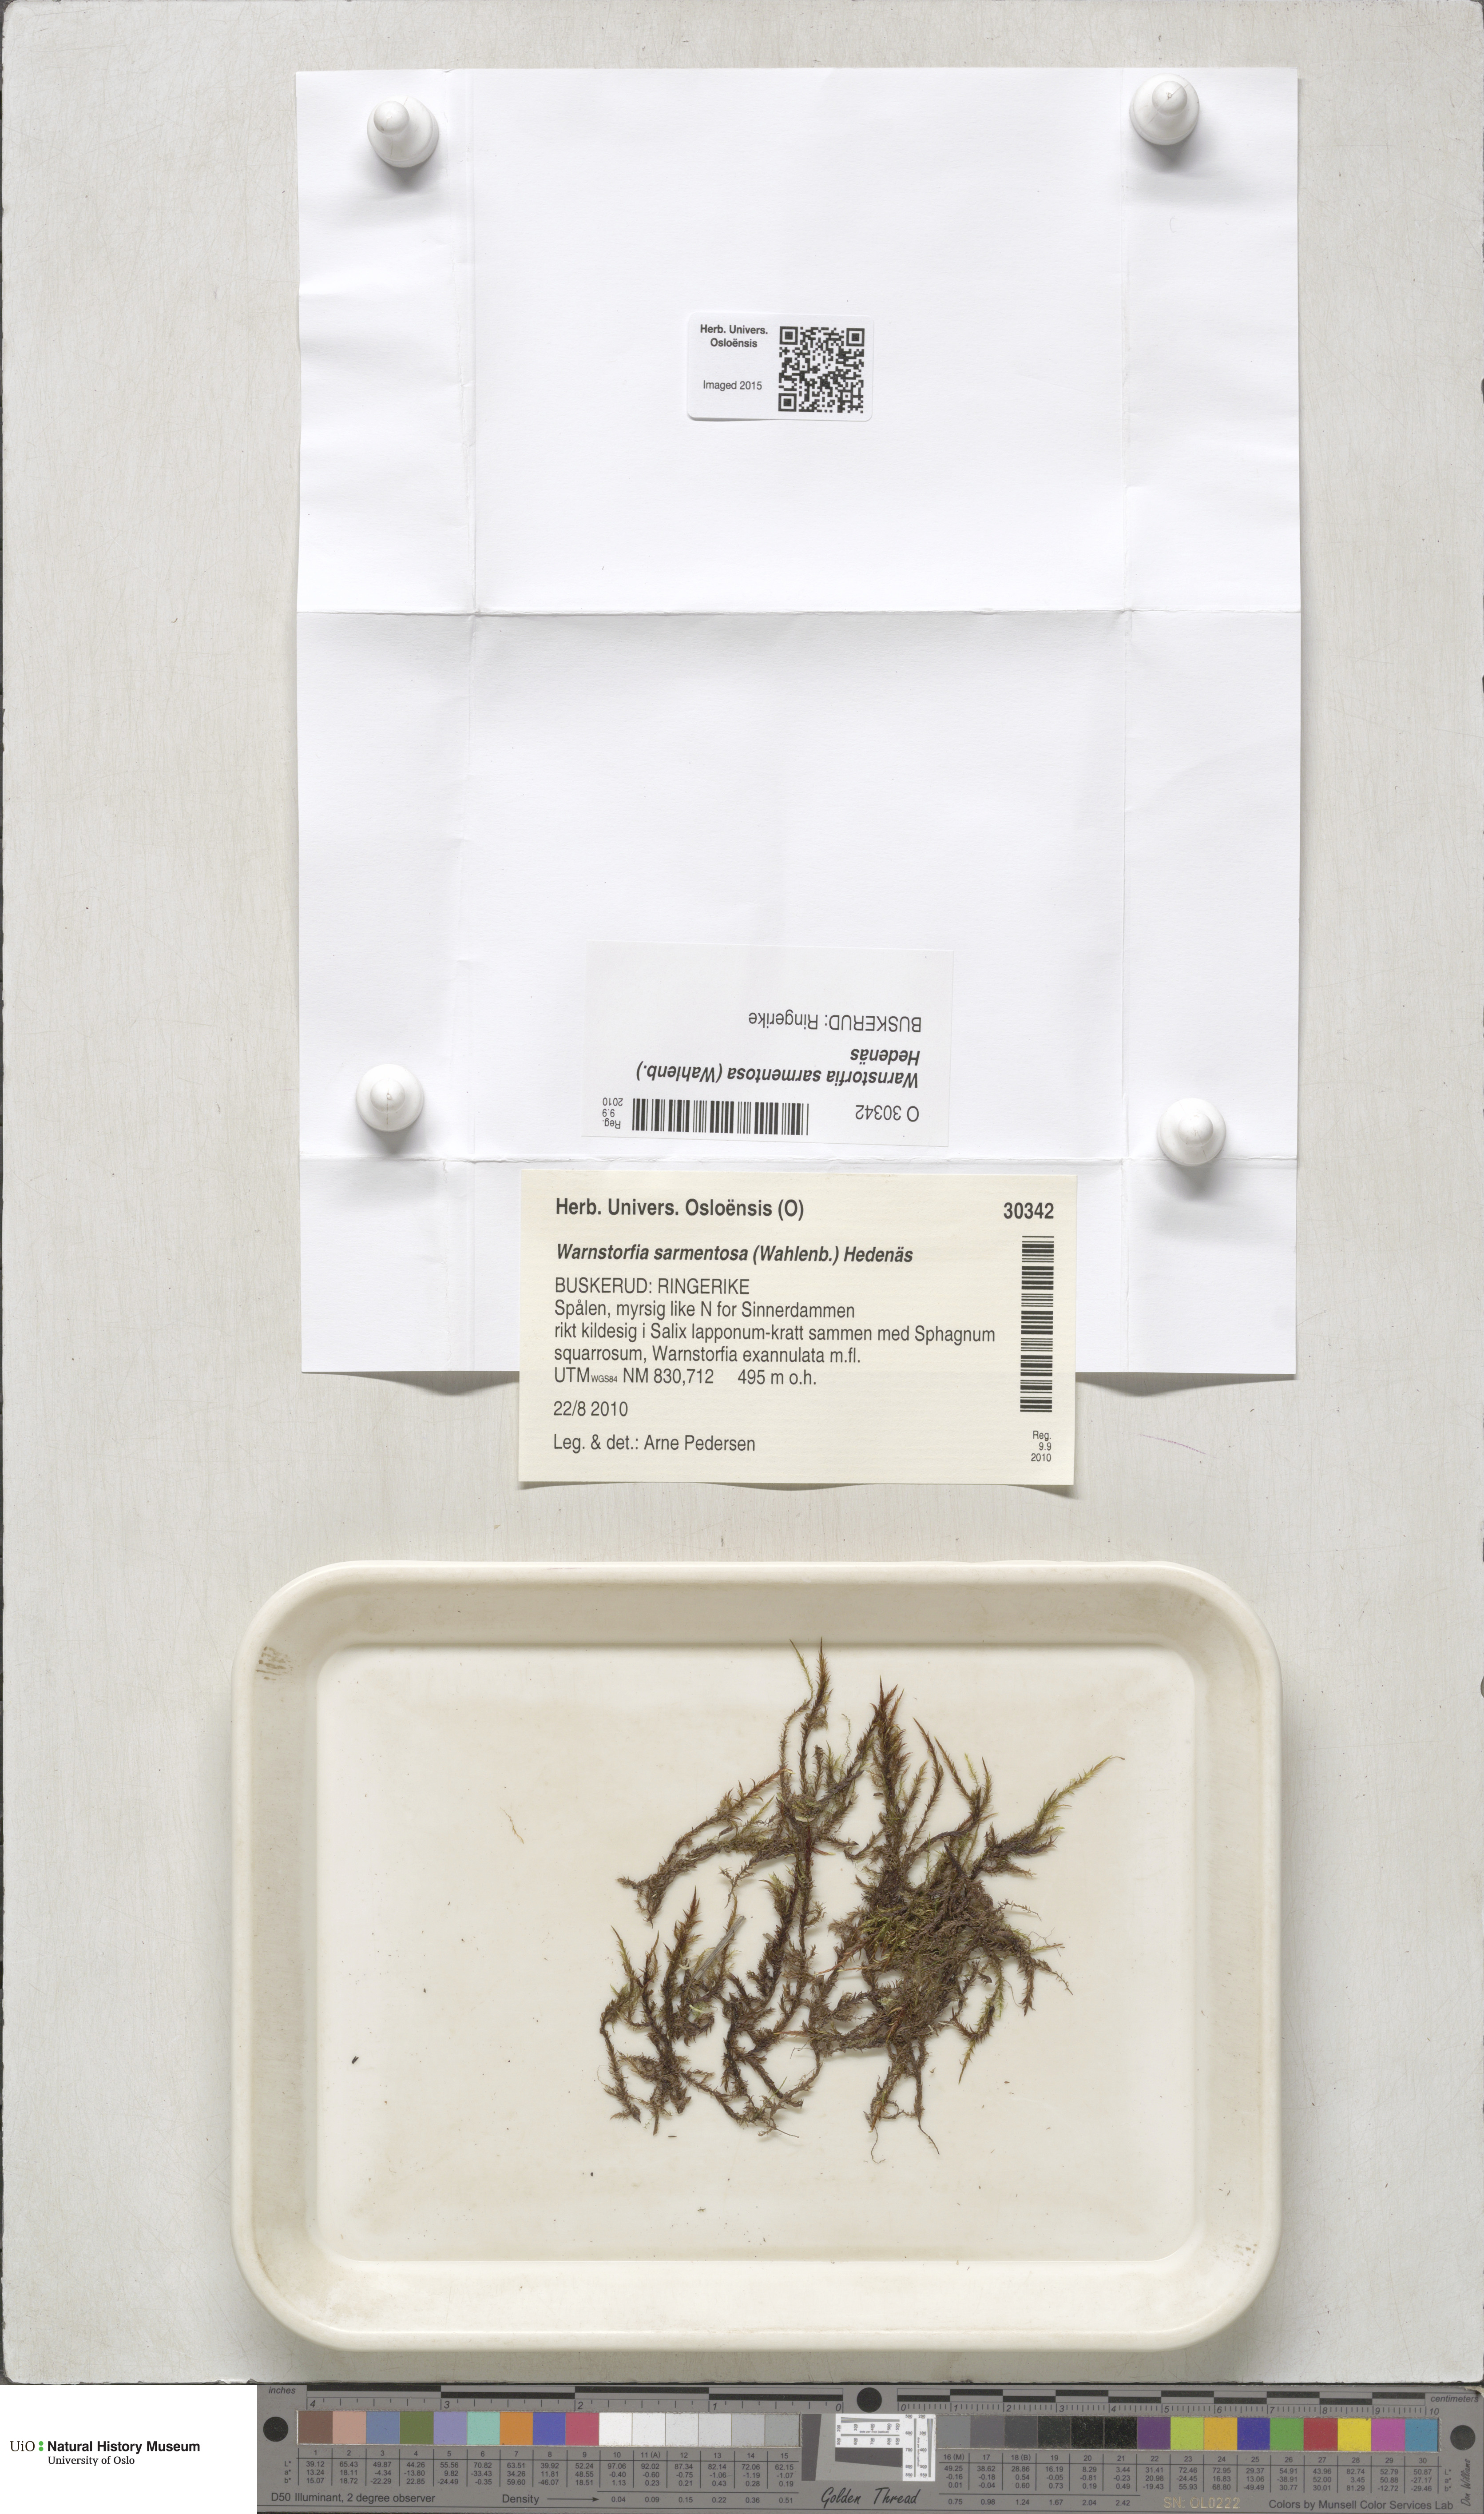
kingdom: Plantae
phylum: Bryophyta
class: Bryopsida
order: Hypnales
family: Calliergonaceae
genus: Sarmentypnum
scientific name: Sarmentypnum sarmentosum
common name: Twiggy spoon moss
